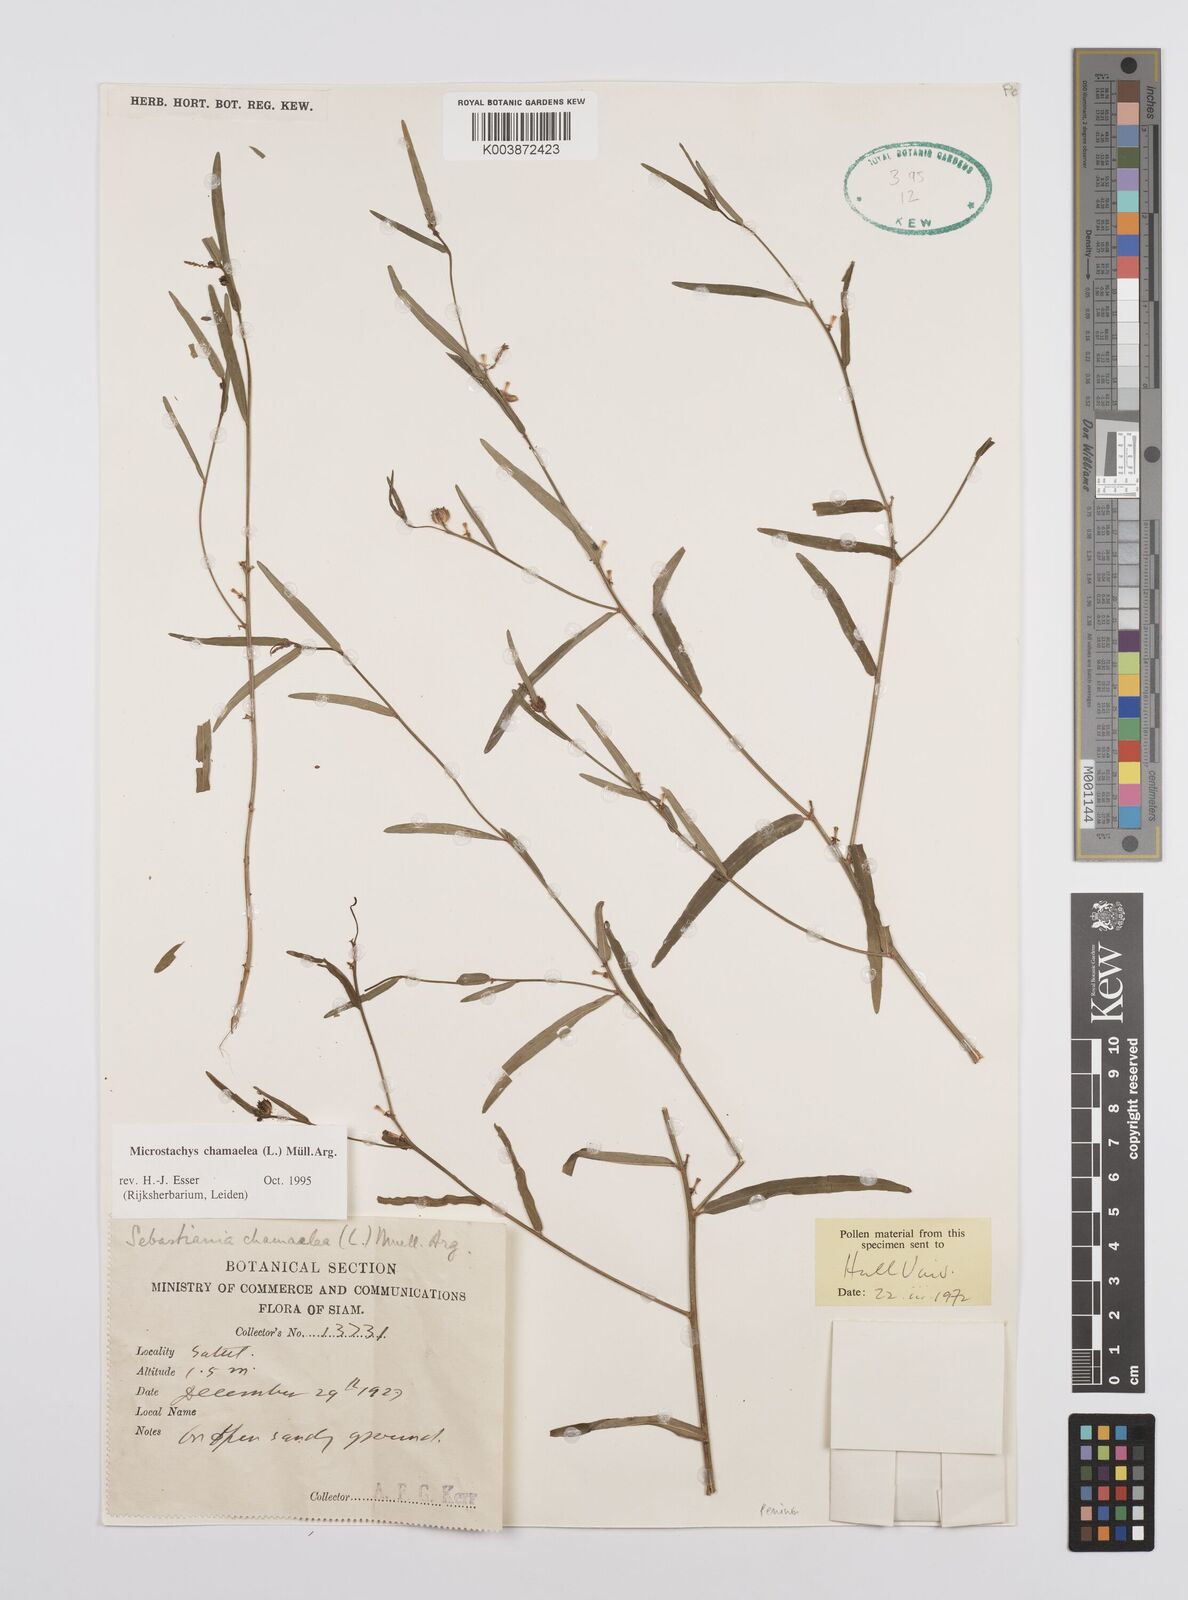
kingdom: Plantae
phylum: Tracheophyta
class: Magnoliopsida
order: Malpighiales
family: Euphorbiaceae
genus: Microstachys
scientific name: Microstachys chamaelea
